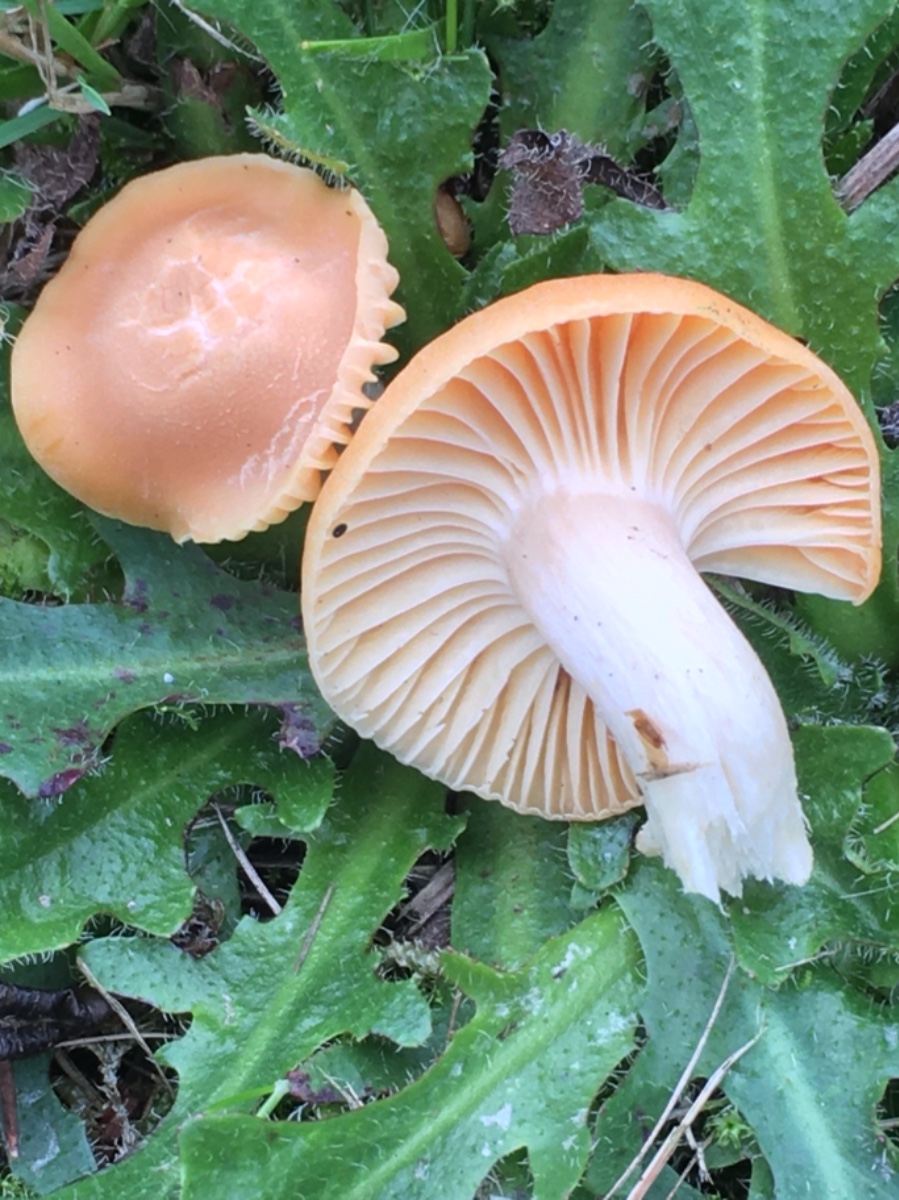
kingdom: Fungi
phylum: Basidiomycota
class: Agaricomycetes
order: Agaricales
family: Hygrophoraceae
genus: Cuphophyllus
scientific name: Cuphophyllus pratensis
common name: eng-vokshat
